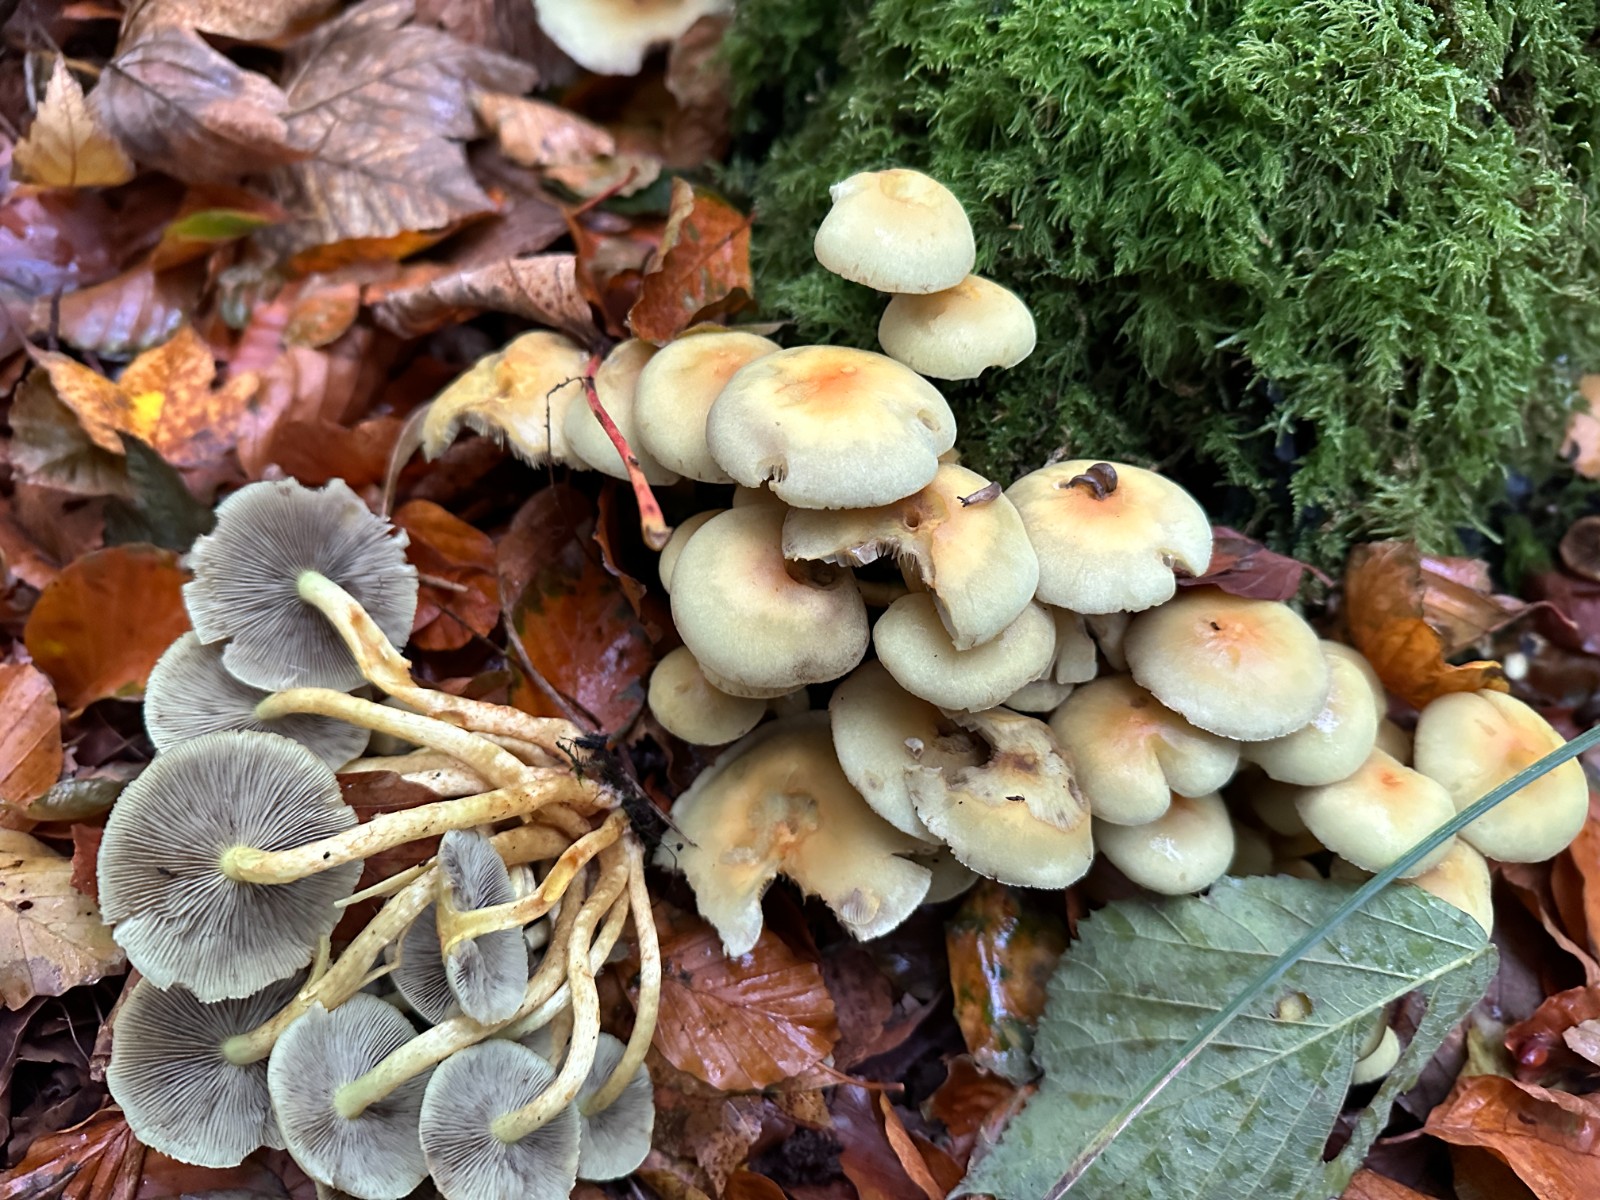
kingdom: Fungi
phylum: Basidiomycota
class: Agaricomycetes
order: Agaricales
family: Strophariaceae
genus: Hypholoma
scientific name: Hypholoma fasciculare
